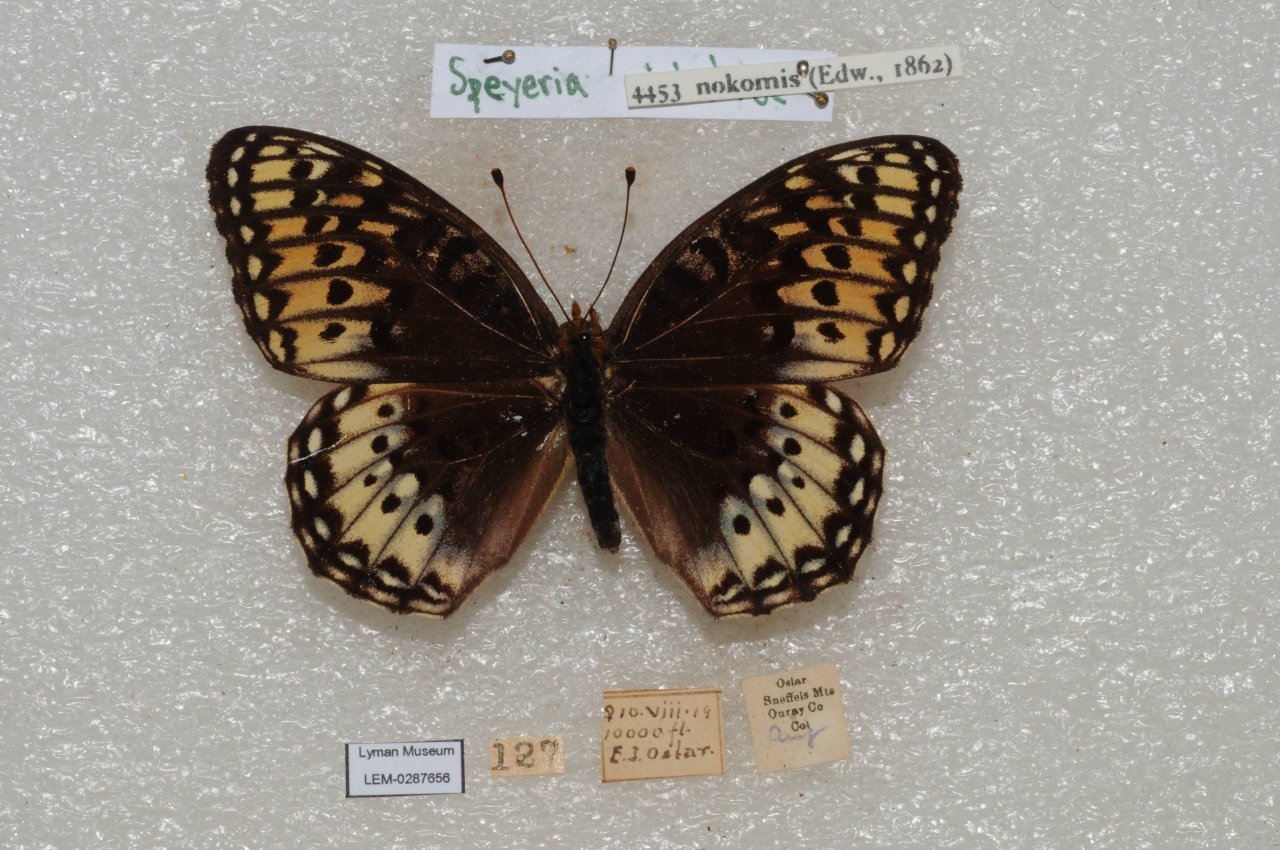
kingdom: Animalia
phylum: Arthropoda
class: Insecta
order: Lepidoptera
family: Nymphalidae
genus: Speyeria
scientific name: Speyeria nokomis
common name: Nokomis Fritillary
